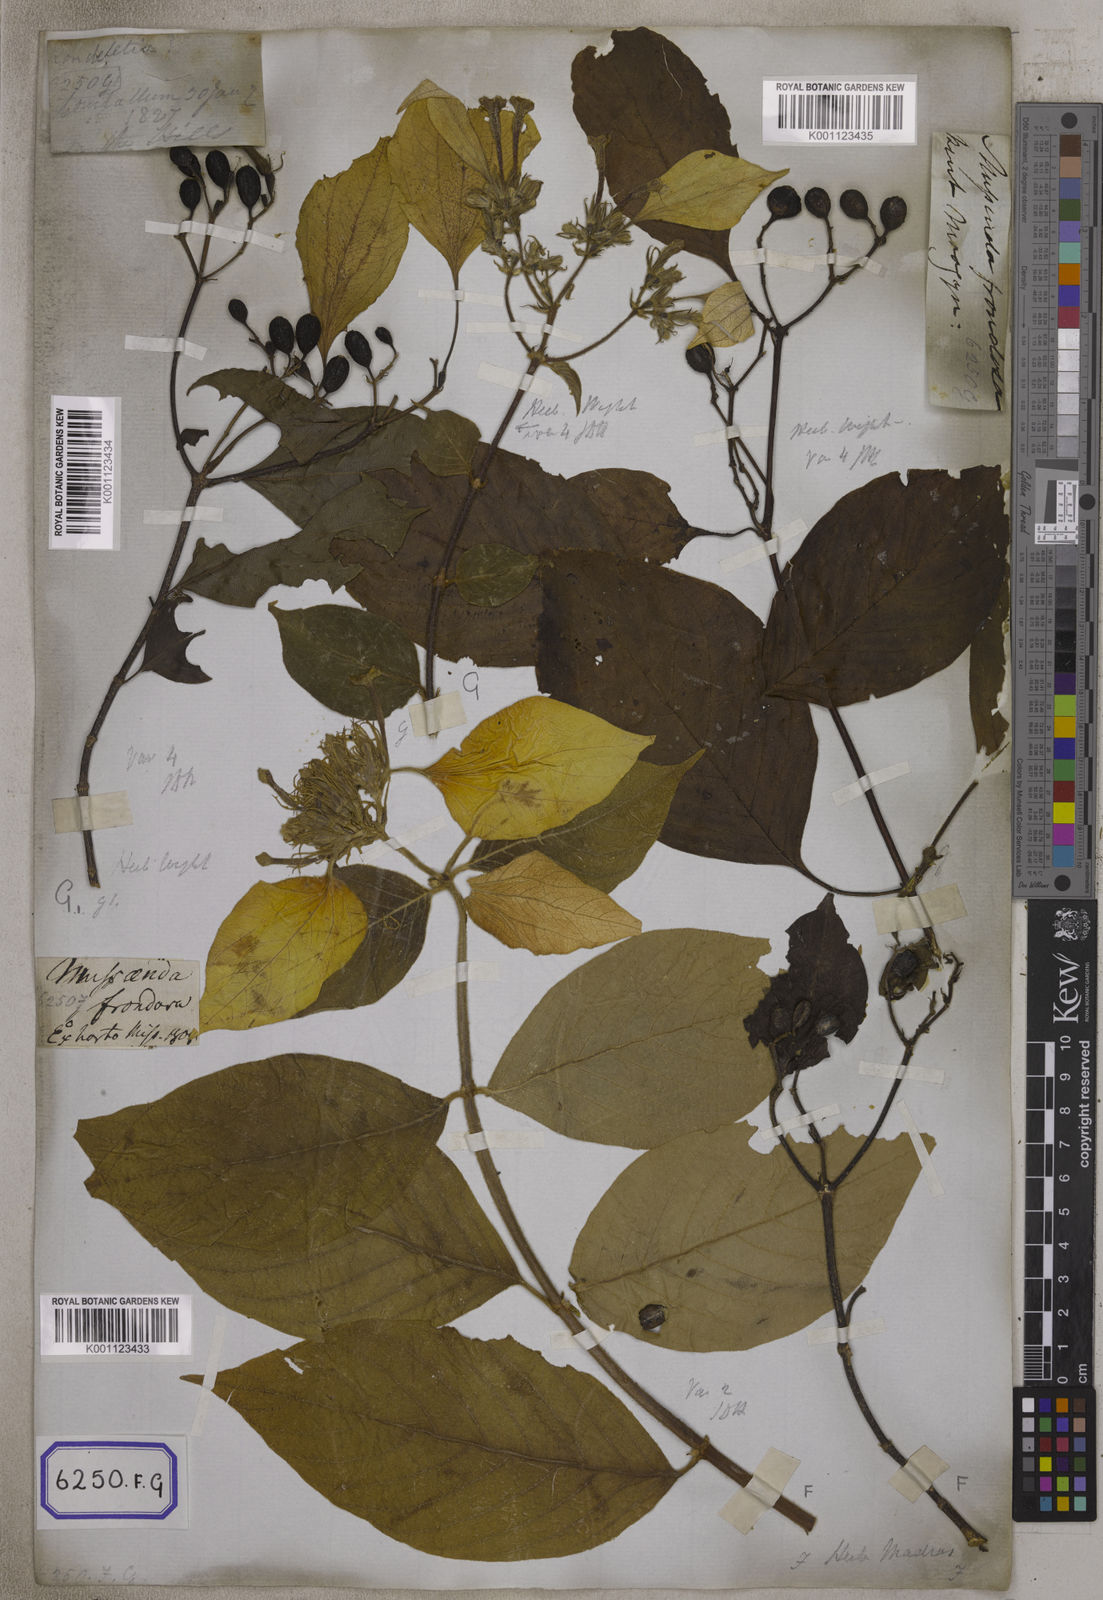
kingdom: Plantae
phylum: Tracheophyta
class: Magnoliopsida
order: Gentianales
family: Rubiaceae
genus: Mussaenda
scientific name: Mussaenda
